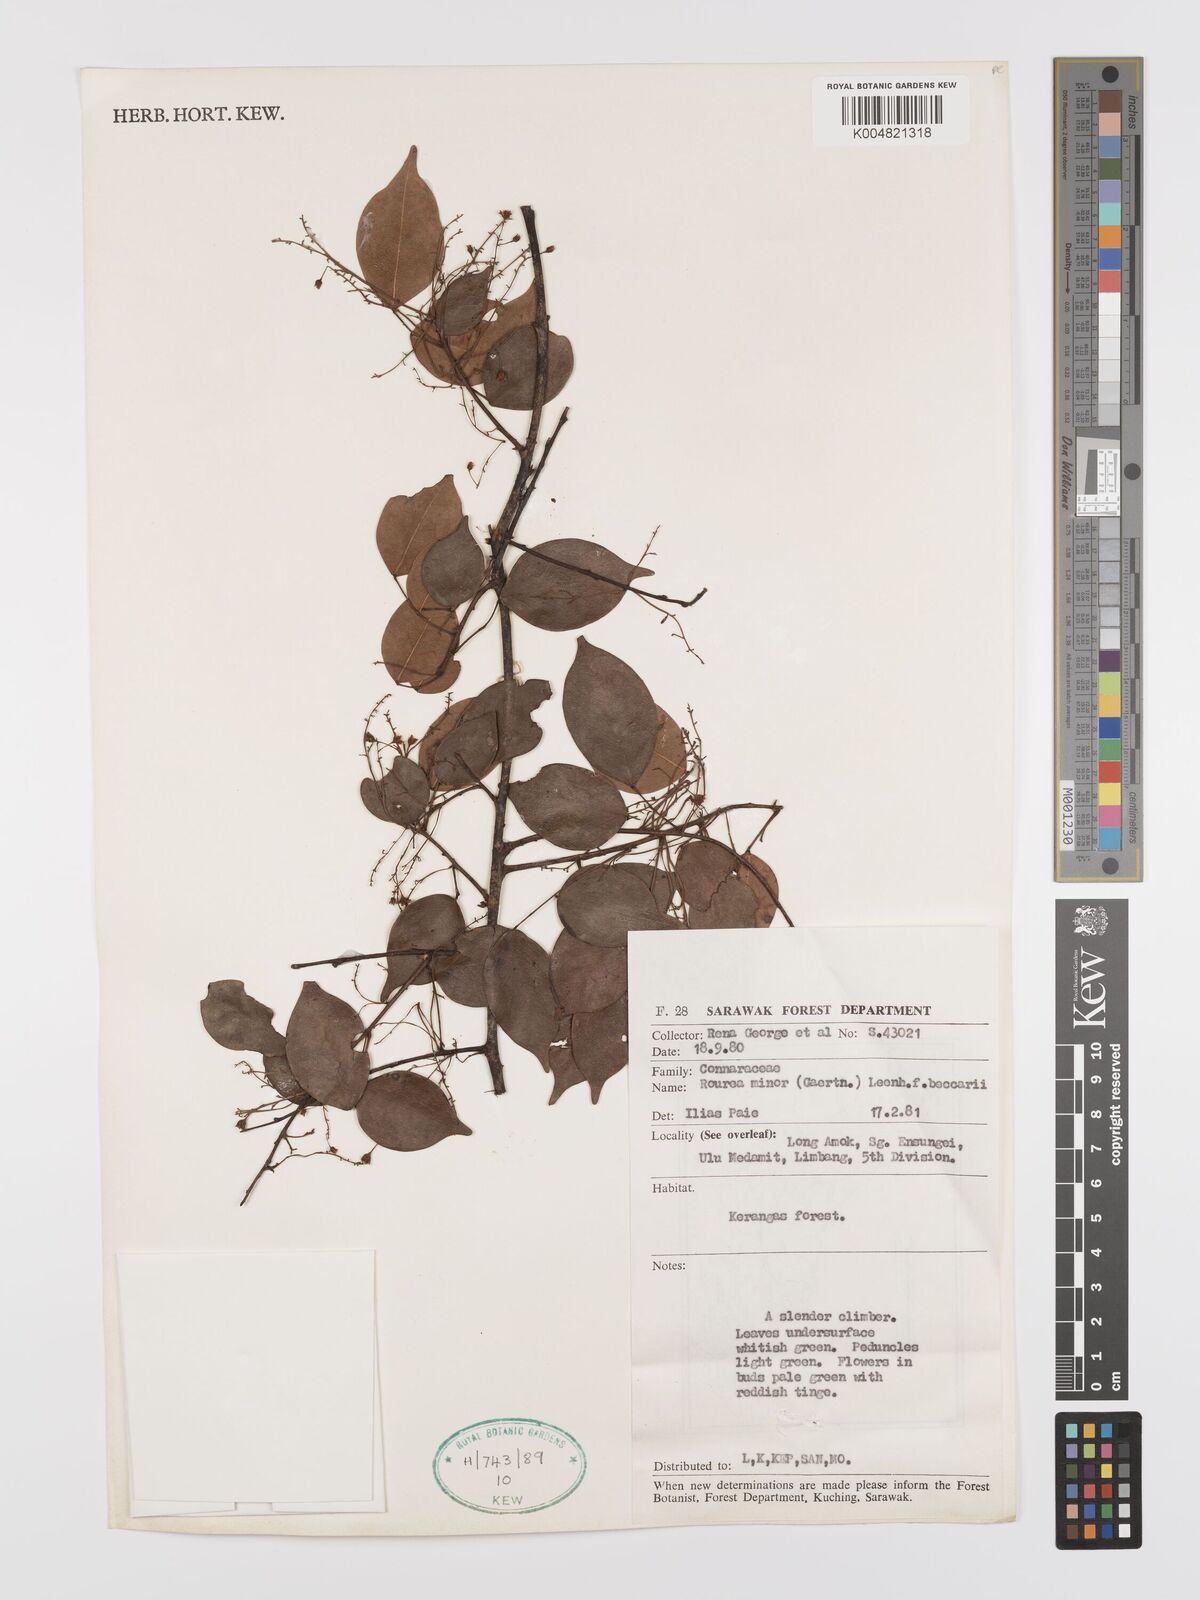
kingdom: Plantae
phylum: Tracheophyta
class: Magnoliopsida
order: Oxalidales
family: Connaraceae
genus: Rourea
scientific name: Rourea minor
